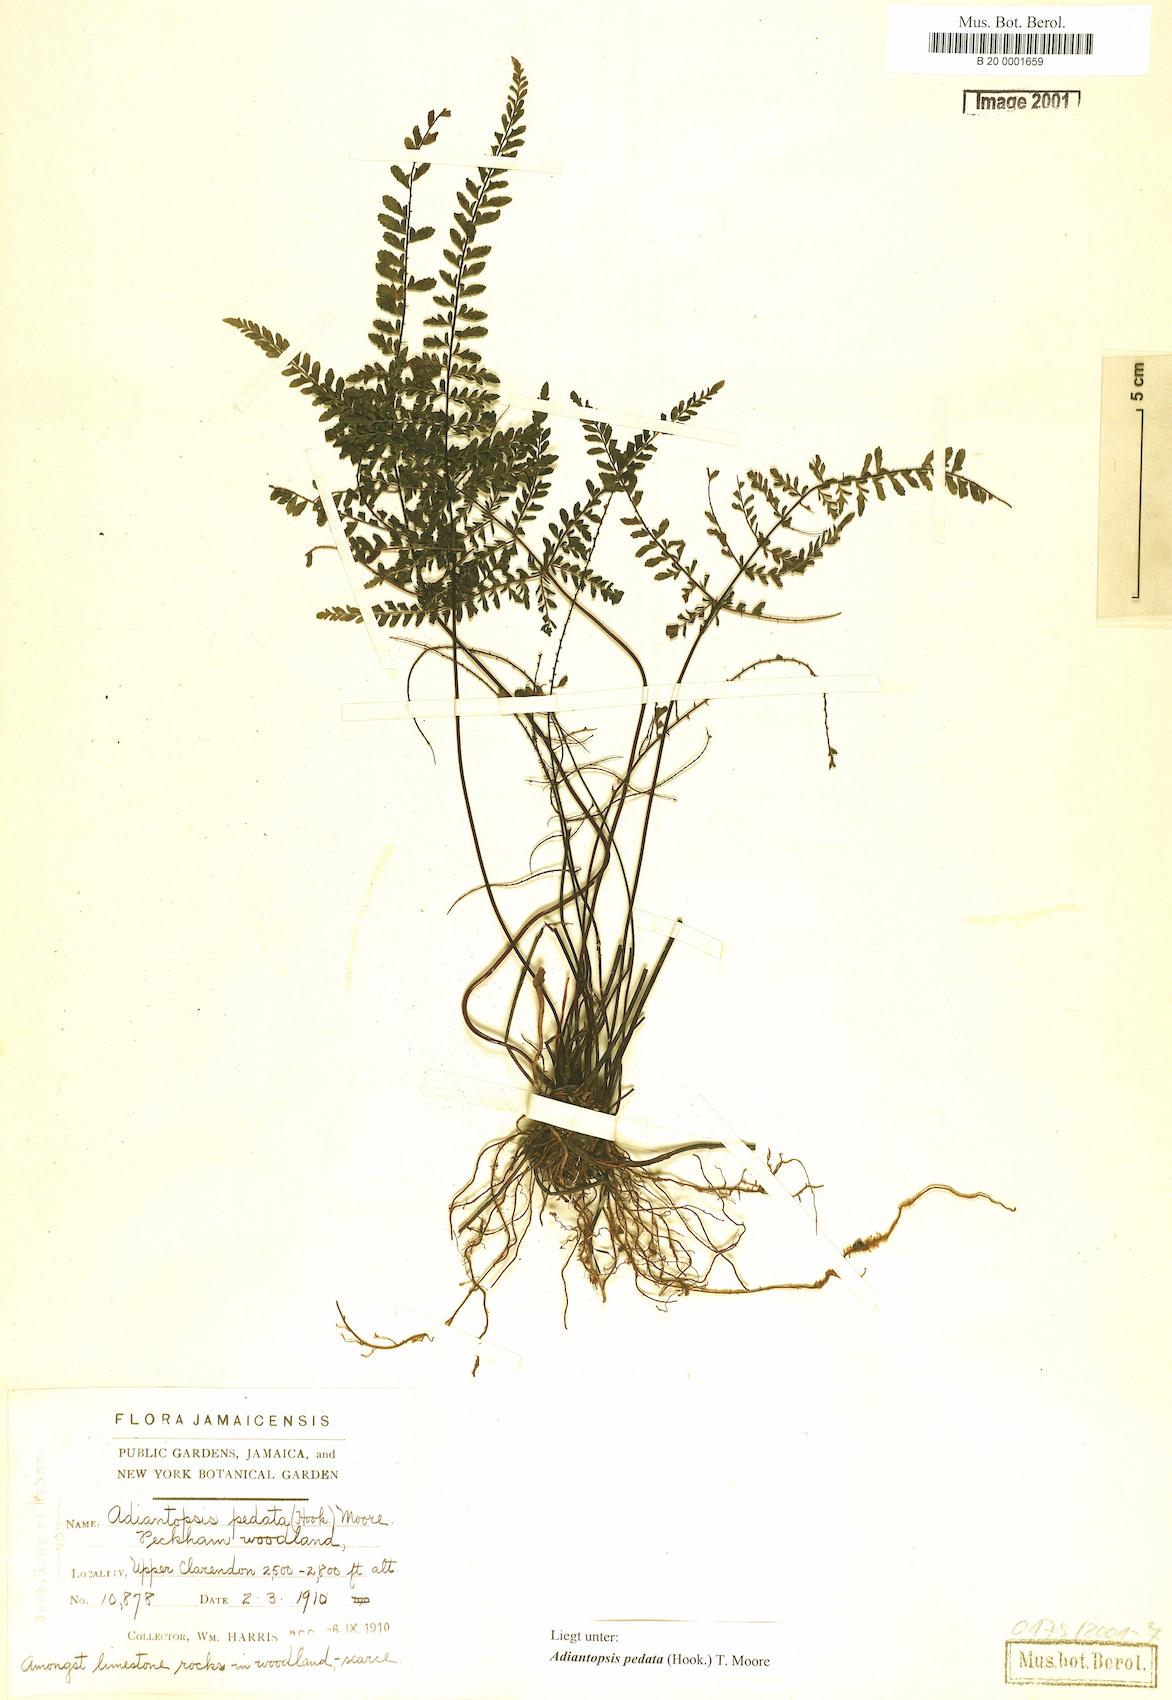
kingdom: Plantae
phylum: Tracheophyta
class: Polypodiopsida
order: Polypodiales
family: Pteridaceae
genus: Adiantopsis
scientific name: Adiantopsis pedata
